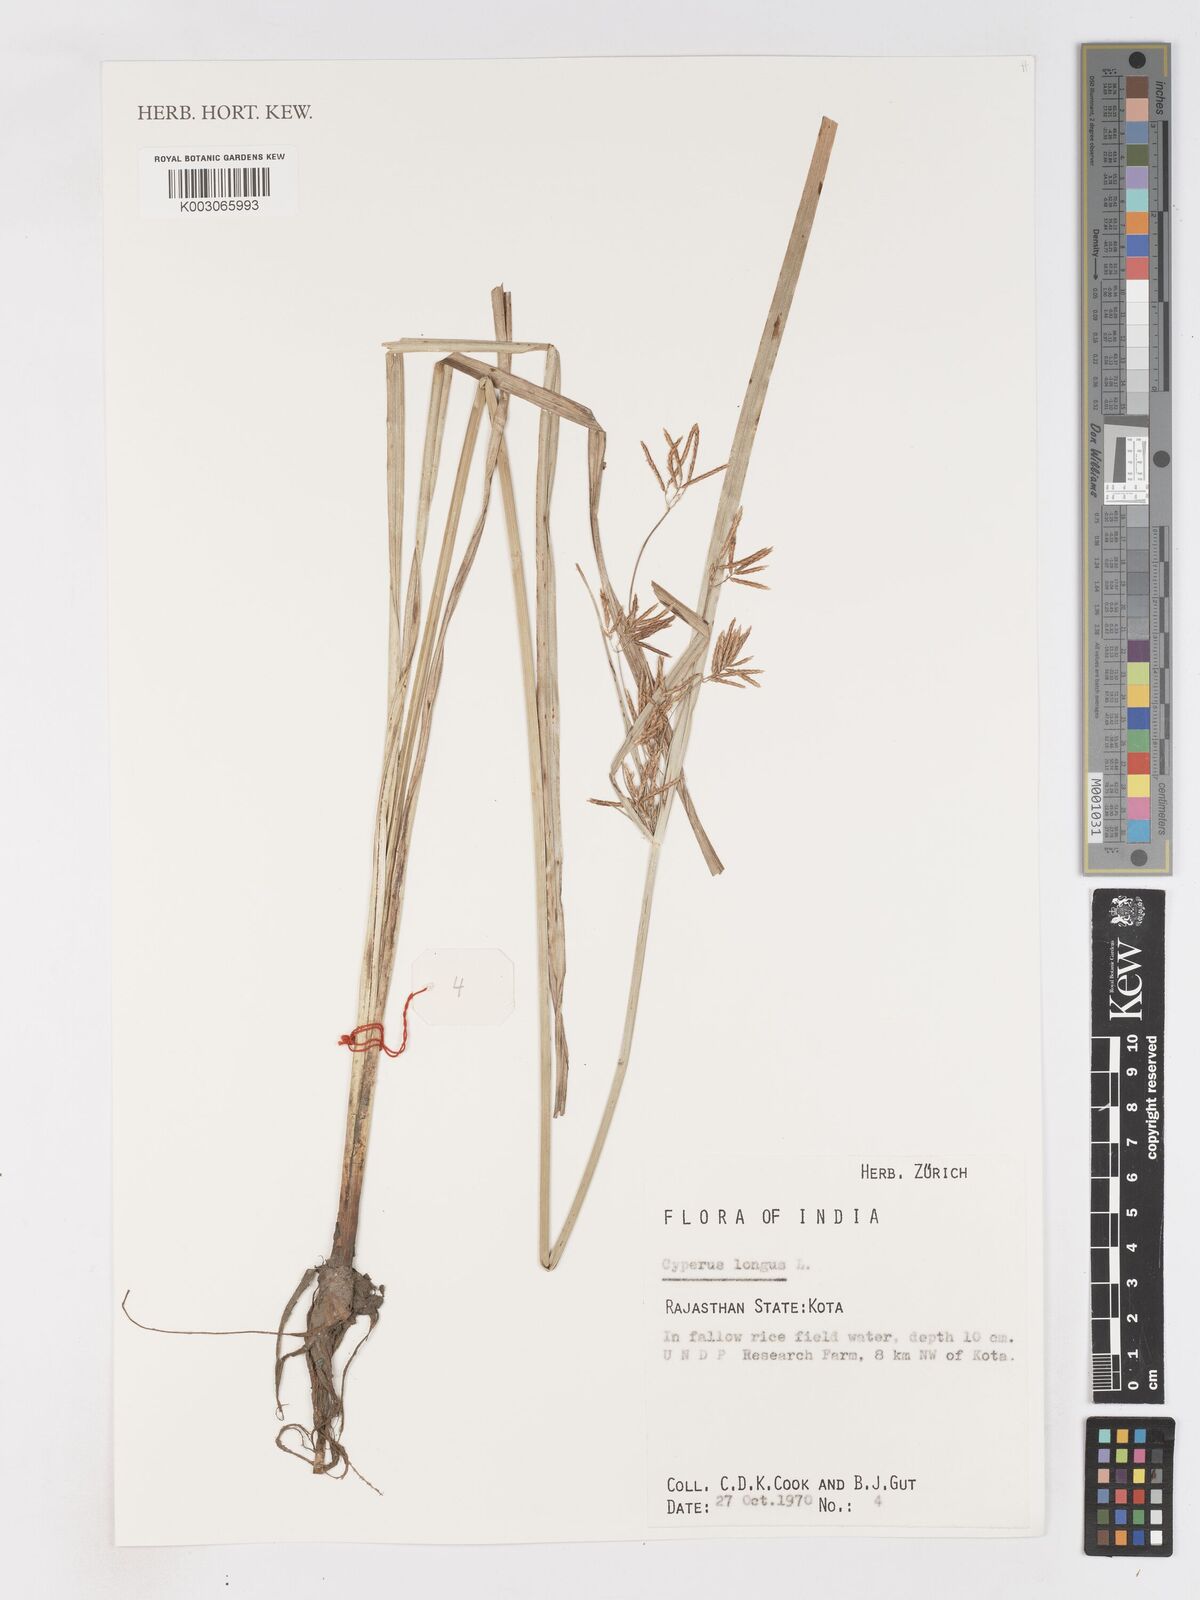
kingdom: Plantae
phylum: Tracheophyta
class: Liliopsida
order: Poales
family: Cyperaceae
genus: Cyperus
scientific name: Cyperus longus
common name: Galingale
